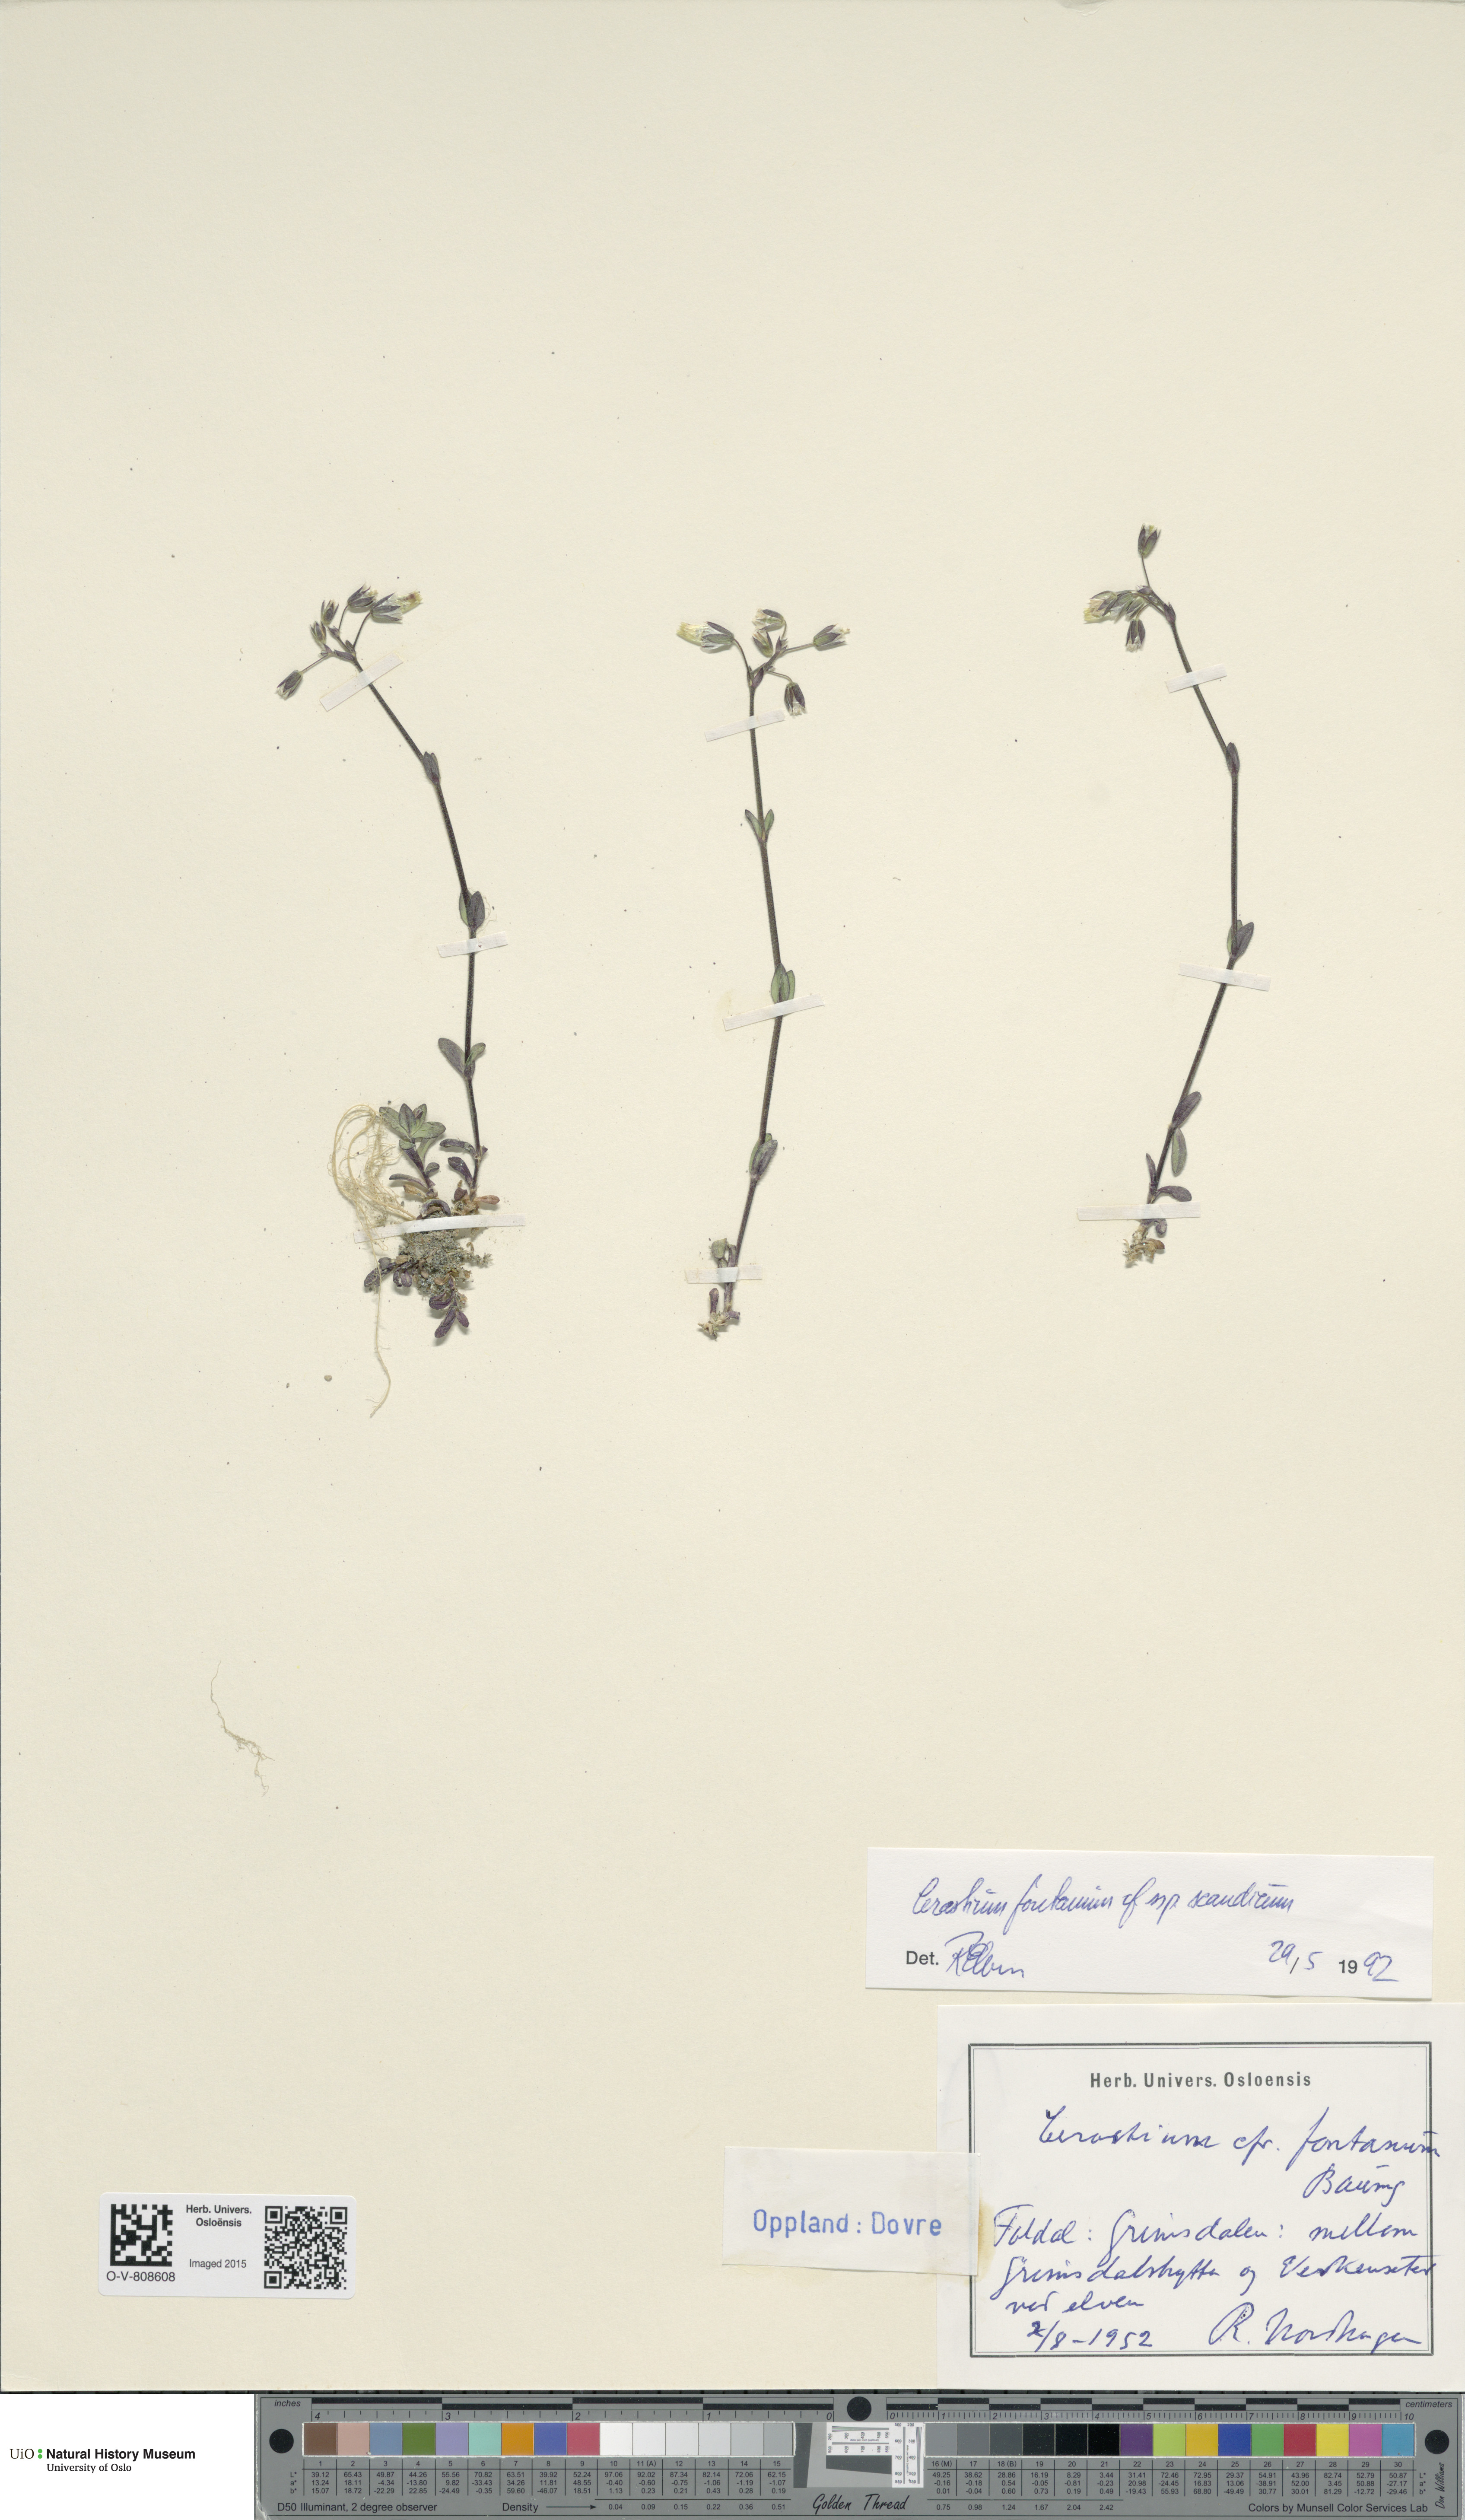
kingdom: Plantae
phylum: Tracheophyta
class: Magnoliopsida
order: Caryophyllales
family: Caryophyllaceae
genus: Cerastium
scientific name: Cerastium fontanum
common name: Common mouse-ear
